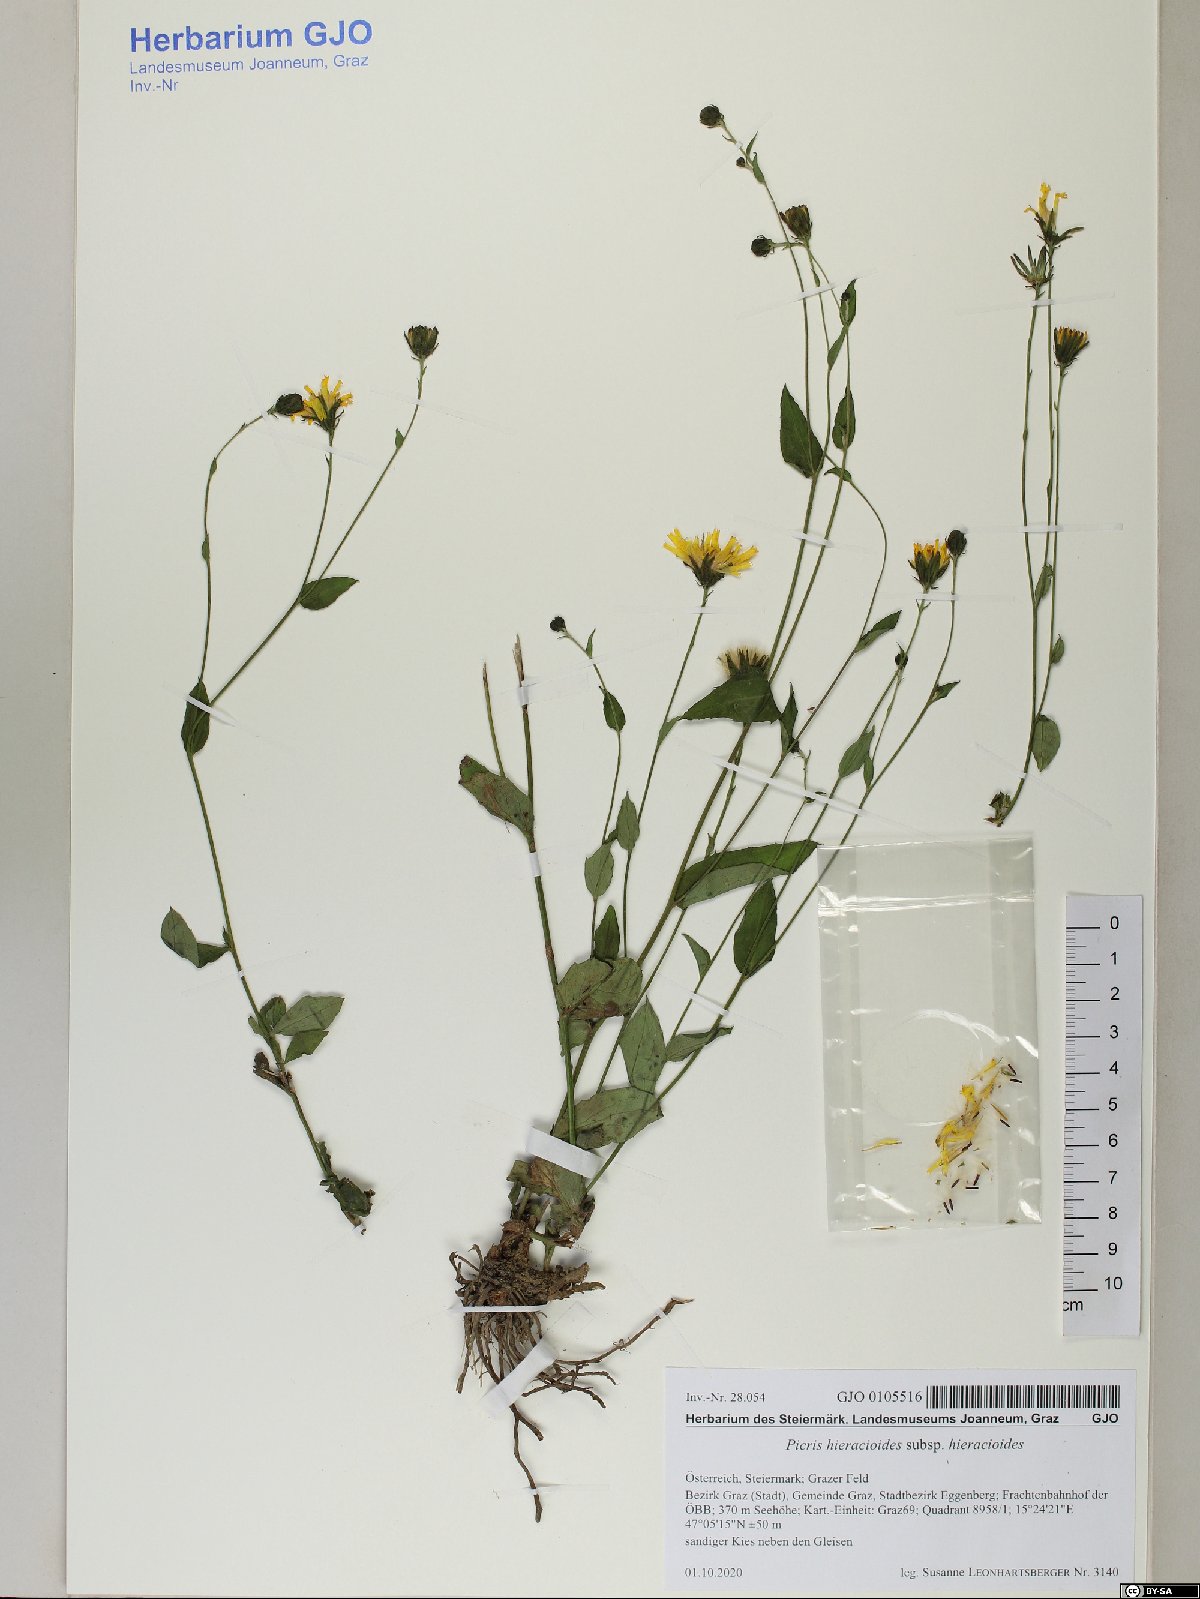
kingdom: Plantae
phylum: Tracheophyta
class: Magnoliopsida
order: Asterales
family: Asteraceae
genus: Picris
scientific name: Picris hieracioides
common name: Hawkweed oxtongue
